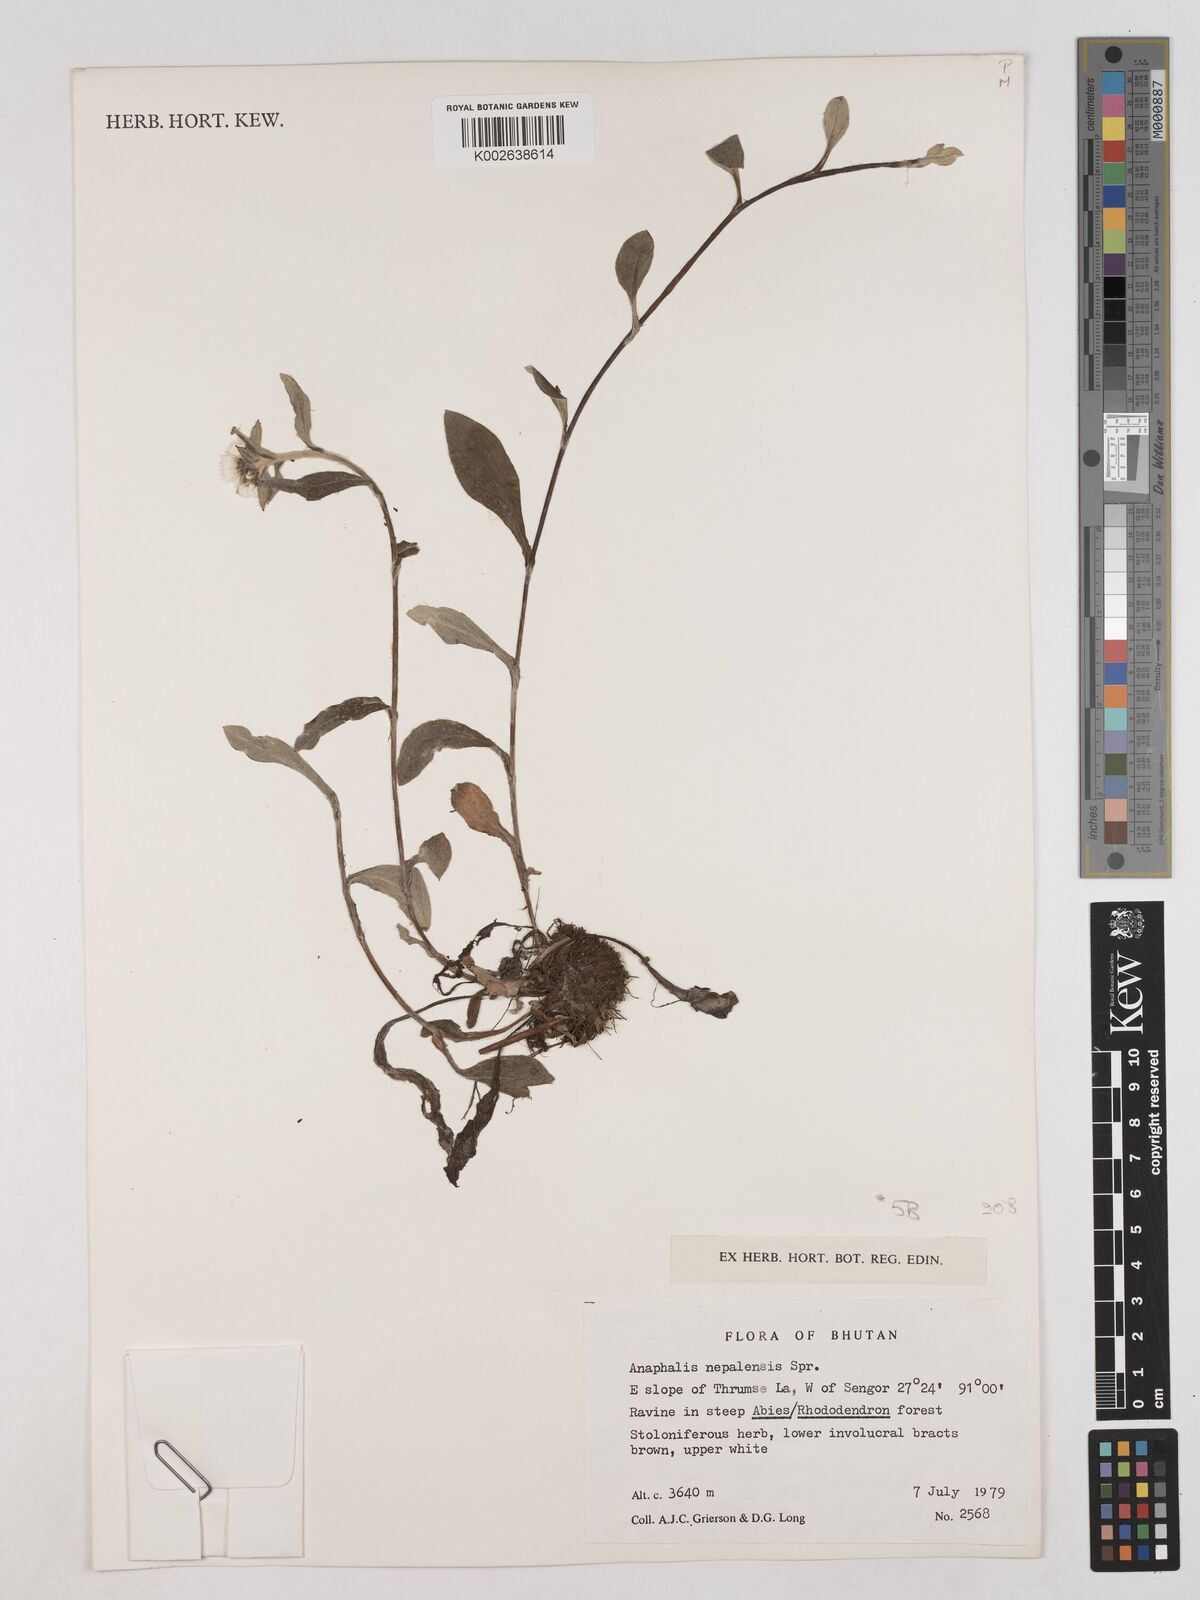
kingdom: Plantae
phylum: Tracheophyta
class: Magnoliopsida
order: Asterales
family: Asteraceae
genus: Anaphalis
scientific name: Anaphalis nepalensis
